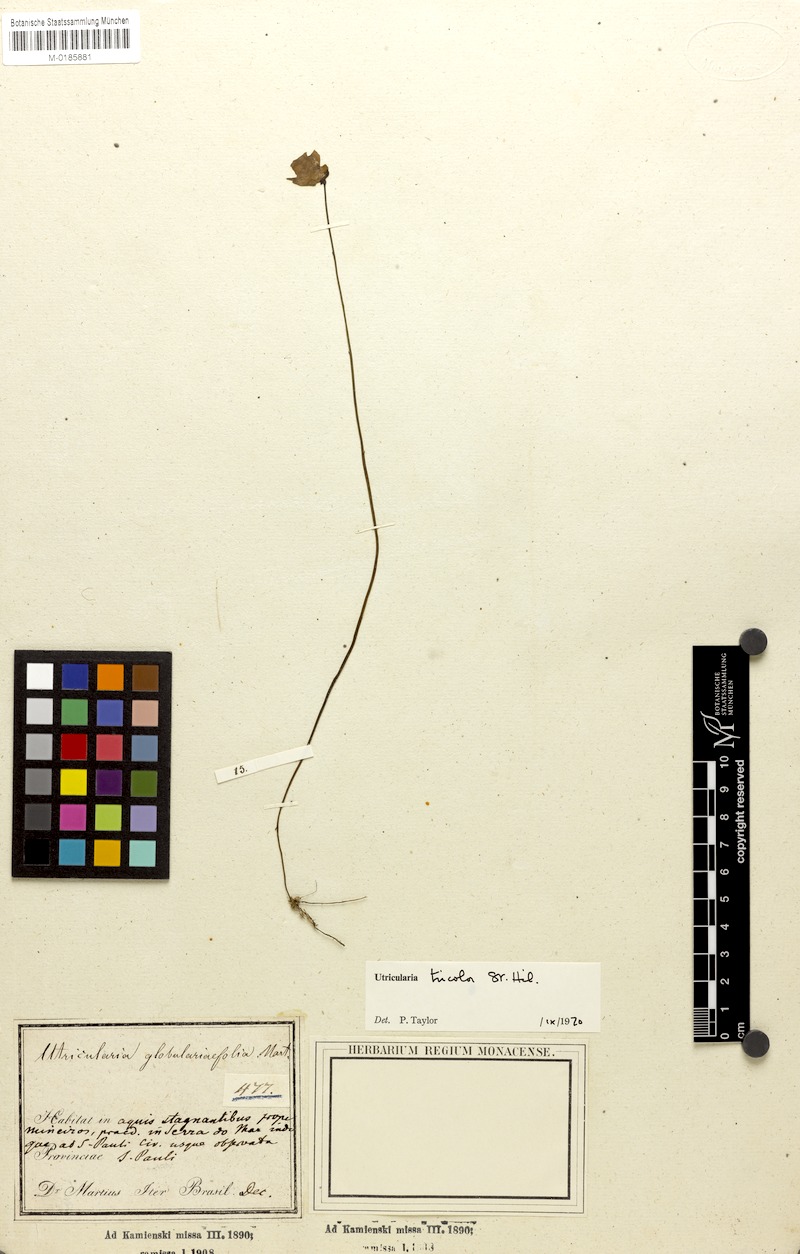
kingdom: Plantae
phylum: Tracheophyta
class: Magnoliopsida
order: Lamiales
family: Lentibulariaceae
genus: Utricularia
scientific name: Utricularia tricolor
